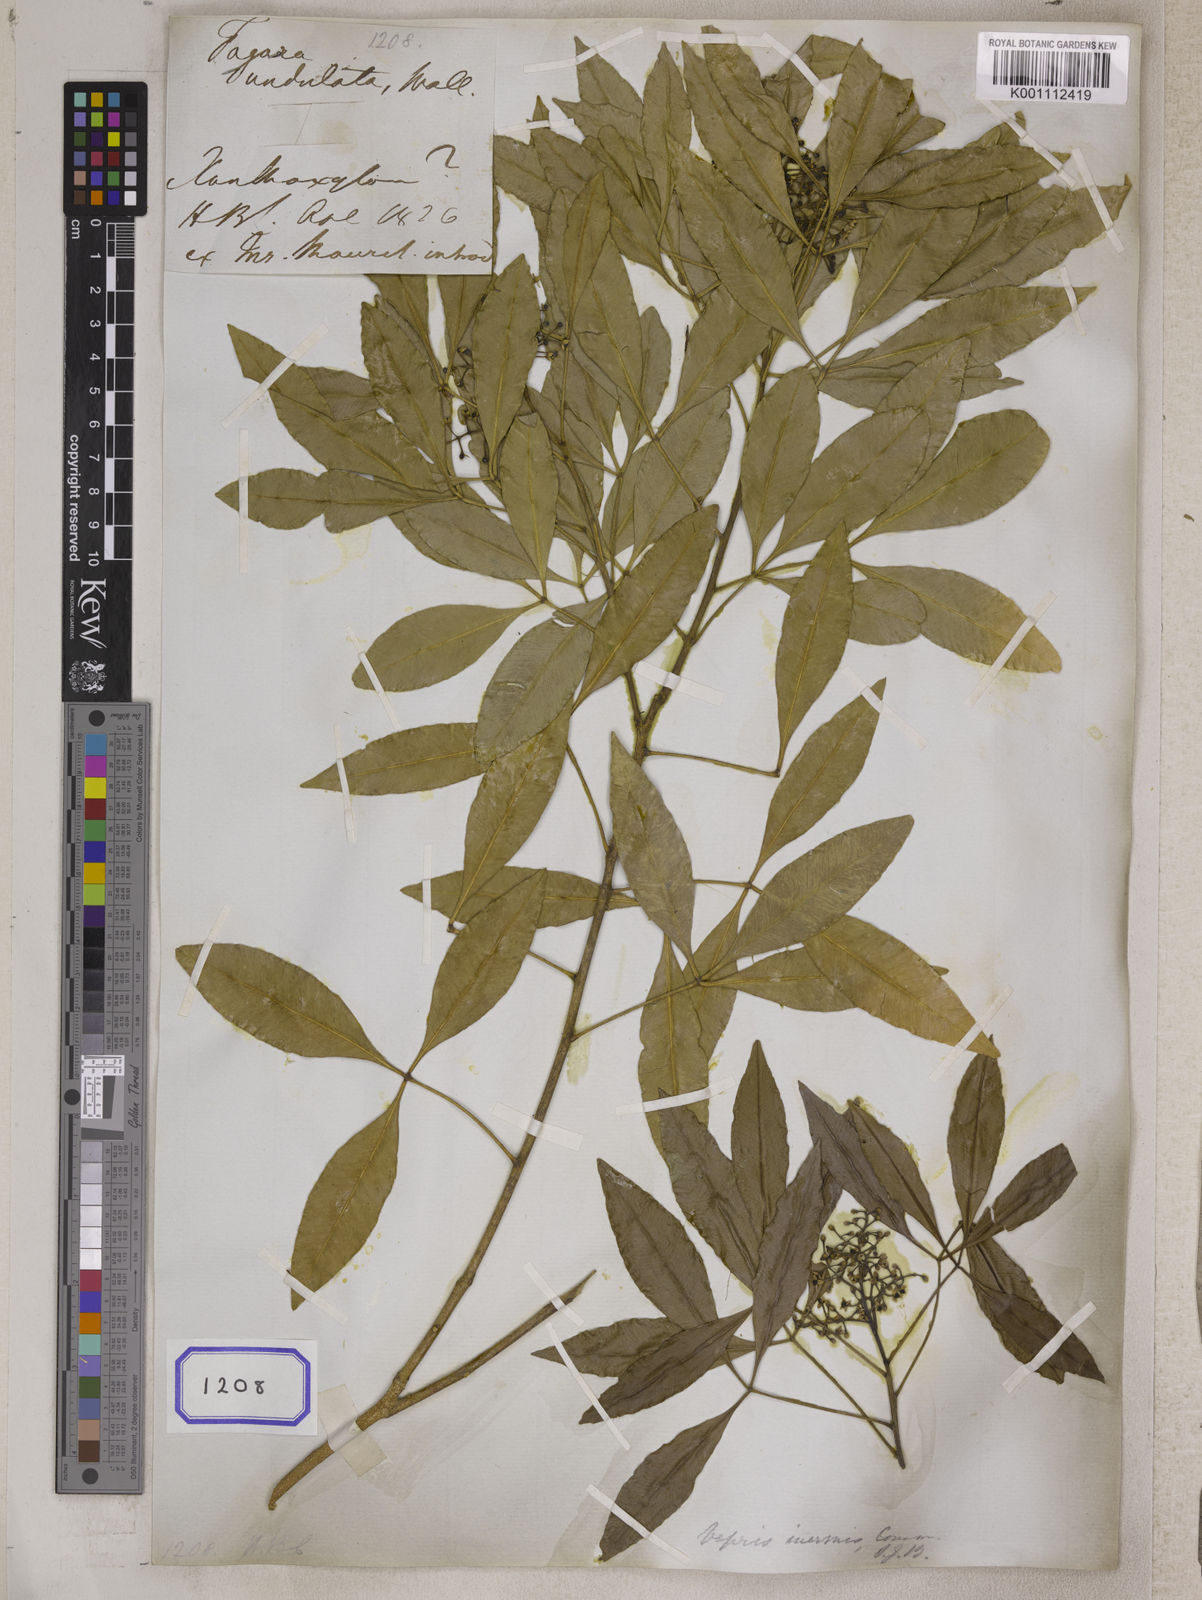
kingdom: Plantae
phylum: Tracheophyta
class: Magnoliopsida
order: Sapindales
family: Rutaceae
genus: Vepris
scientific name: Vepris lanceolata
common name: White ironwood
